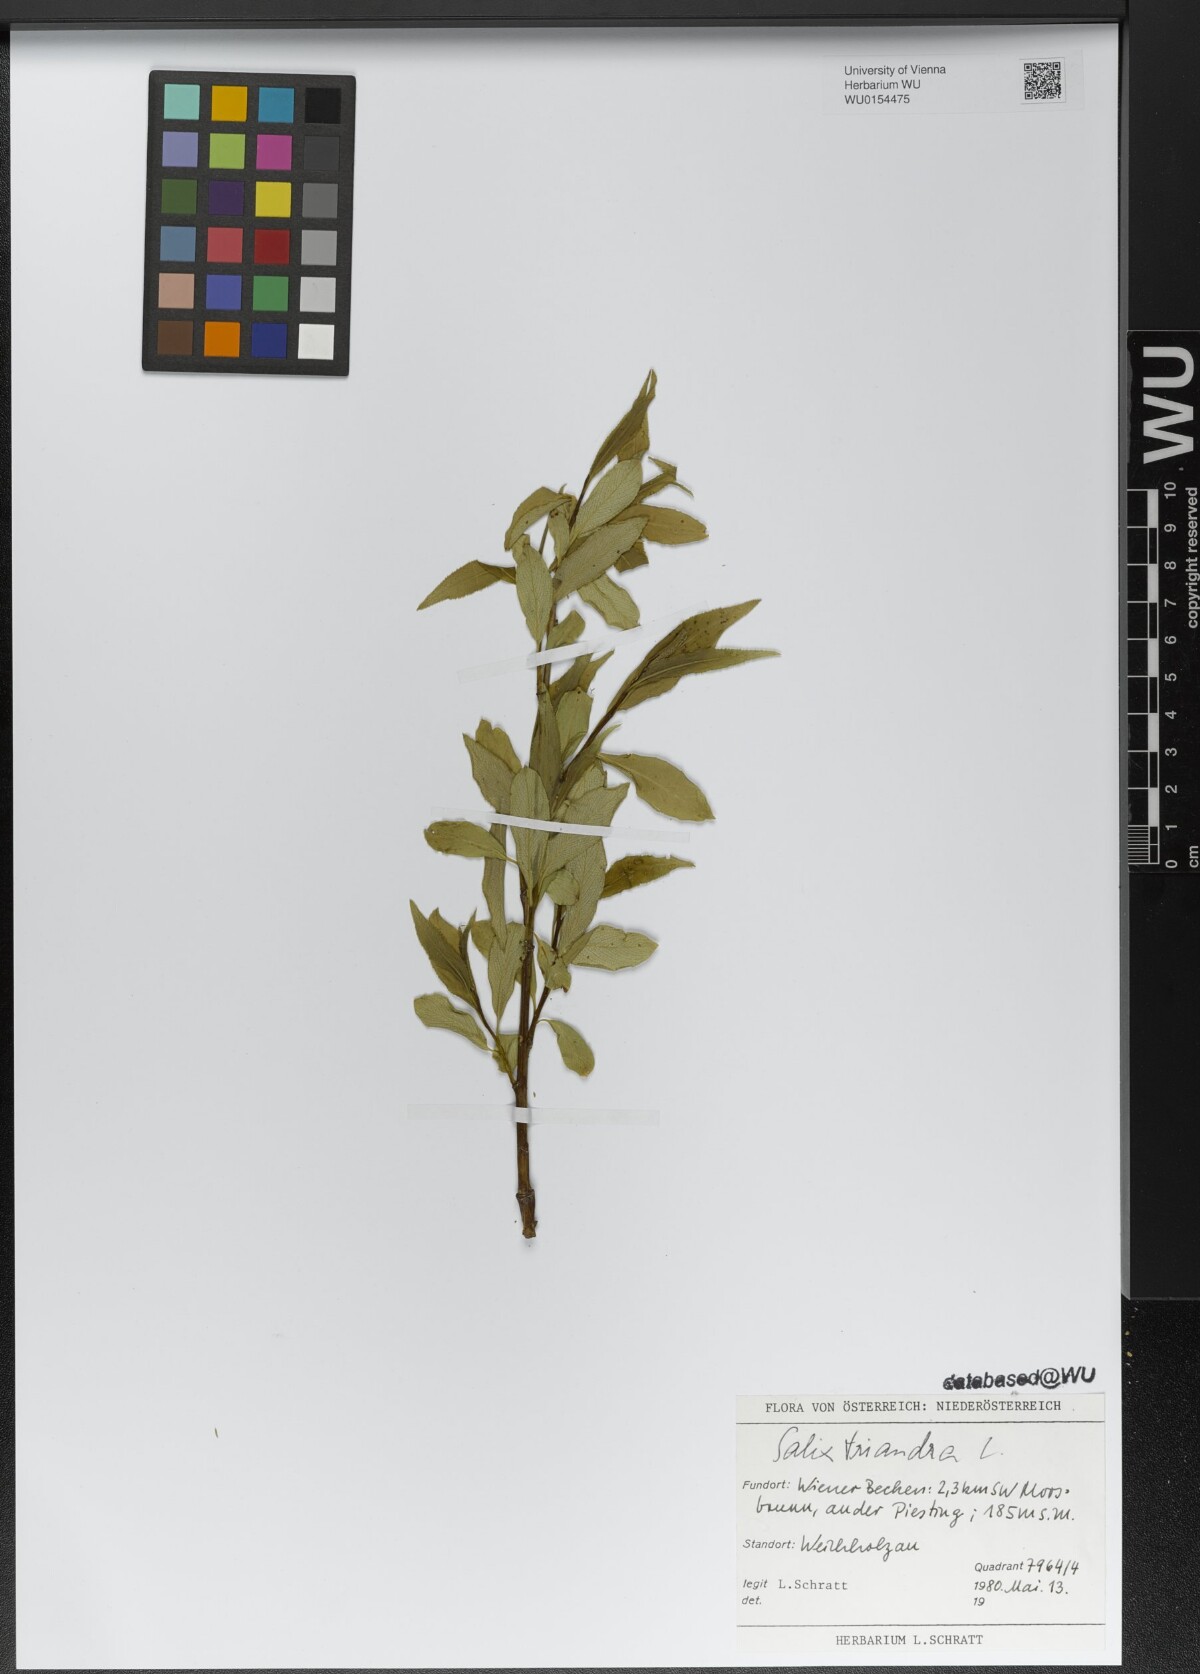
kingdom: Plantae
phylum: Tracheophyta
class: Liliopsida
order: Poales
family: Cyperaceae
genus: Schoenus
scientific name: Schoenus nigricans
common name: Black bog-rush
